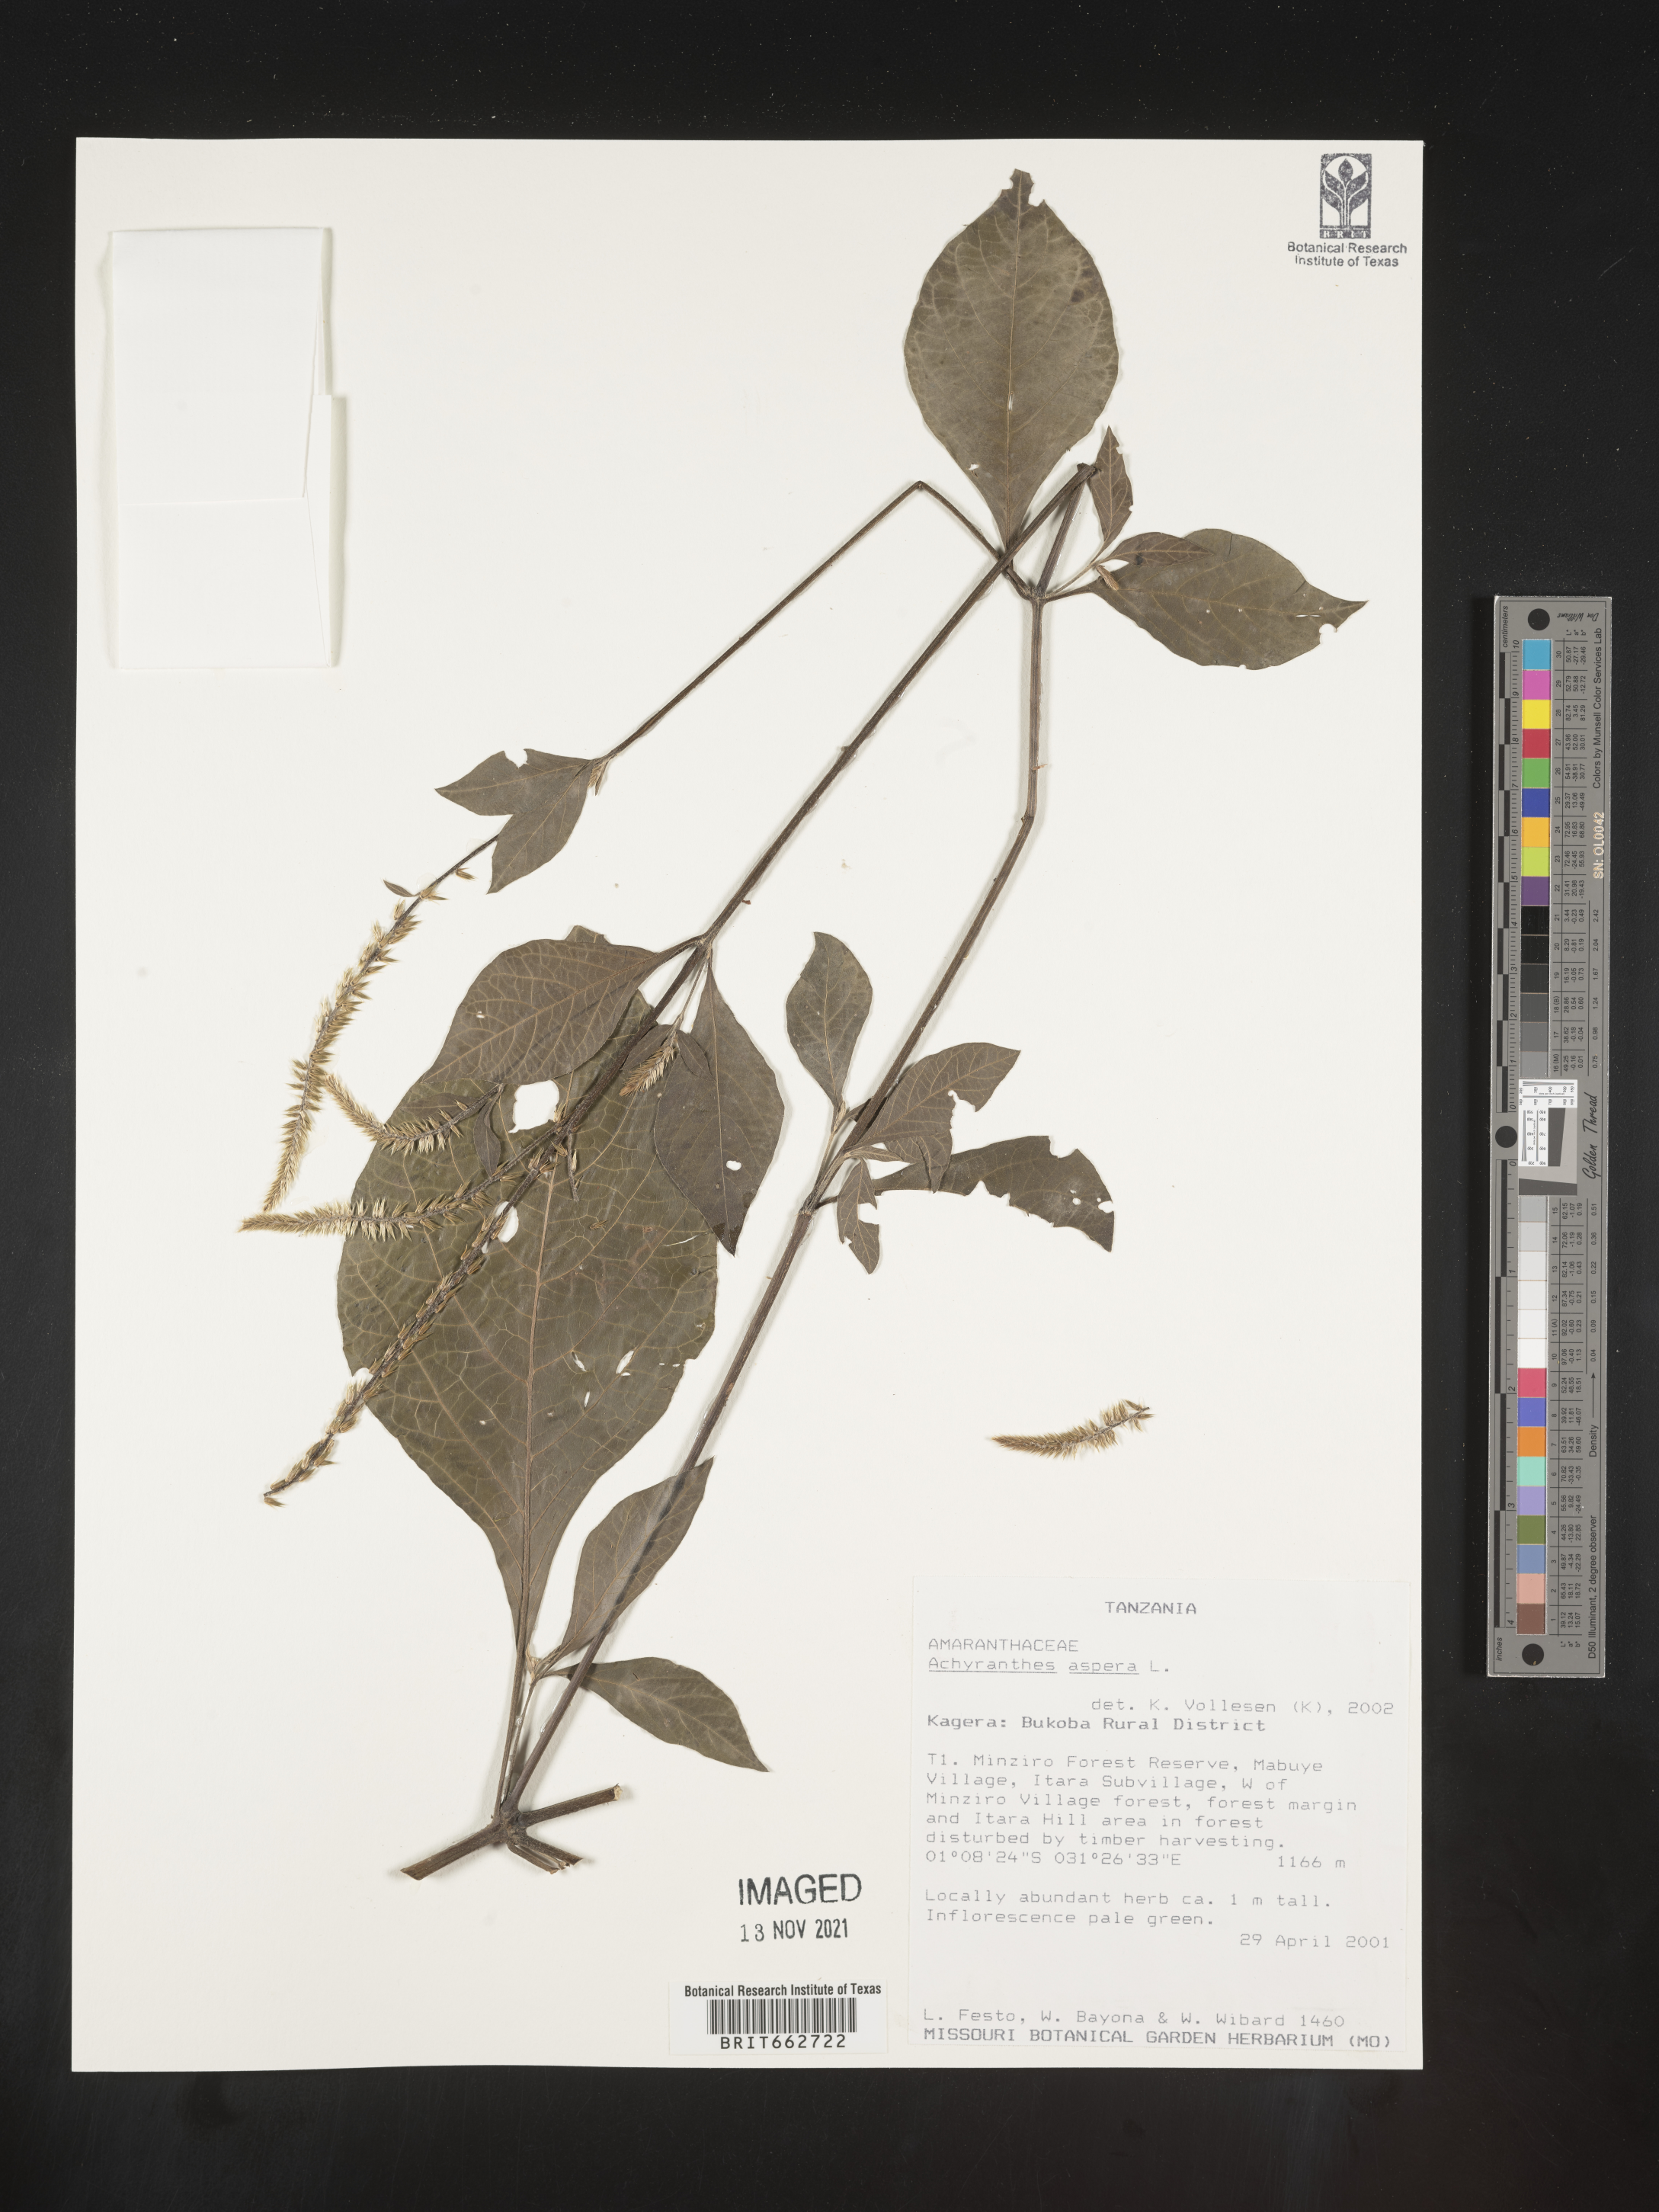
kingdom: Plantae
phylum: Tracheophyta
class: Magnoliopsida
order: Caryophyllales
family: Amaranthaceae
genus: Achyranthes
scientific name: Achyranthes
